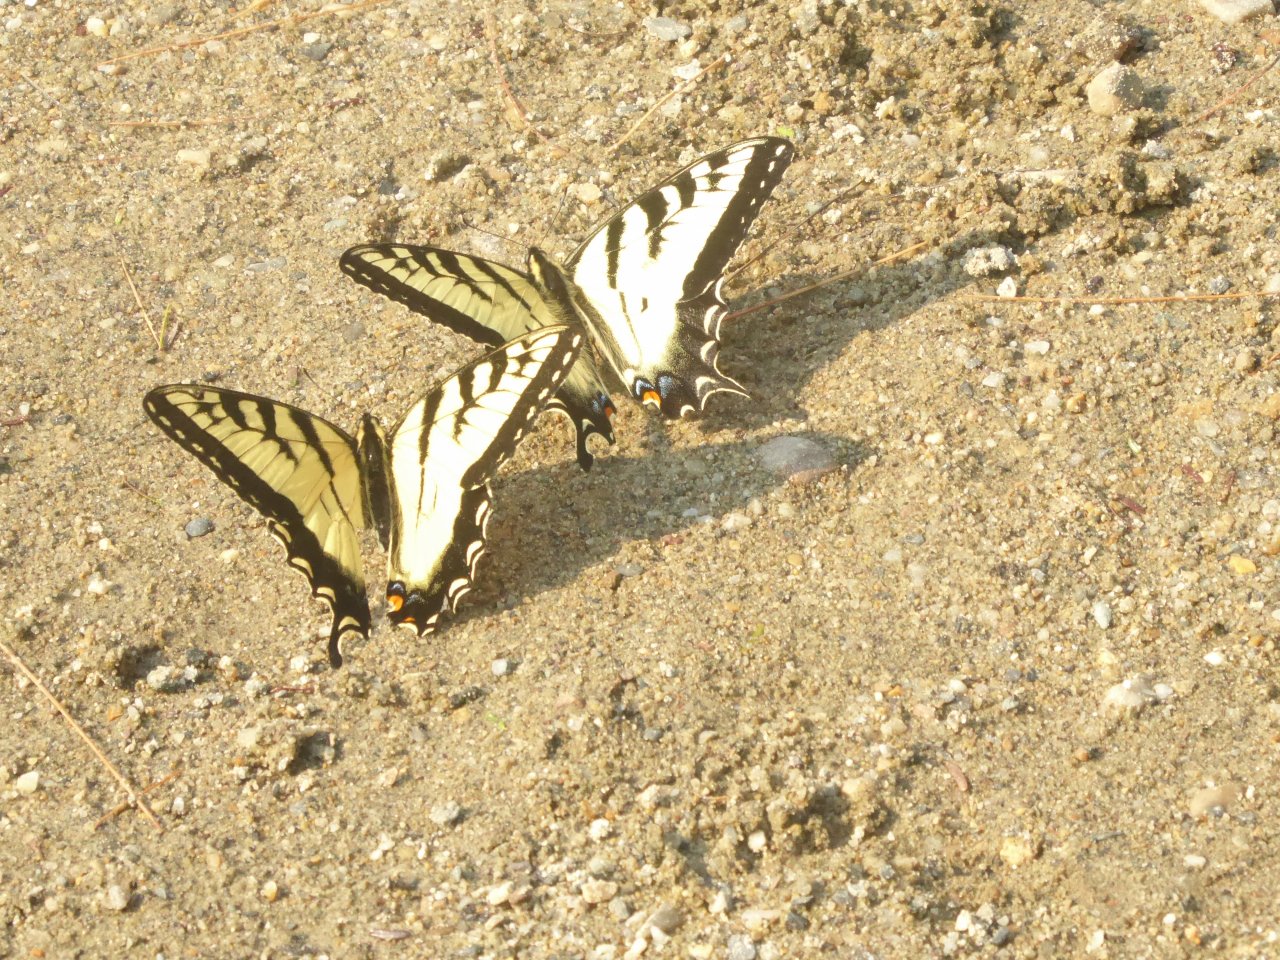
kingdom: Animalia
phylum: Arthropoda
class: Insecta
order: Lepidoptera
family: Papilionidae
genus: Pterourus
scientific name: Pterourus canadensis
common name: Canadian Tiger Swallowtail
